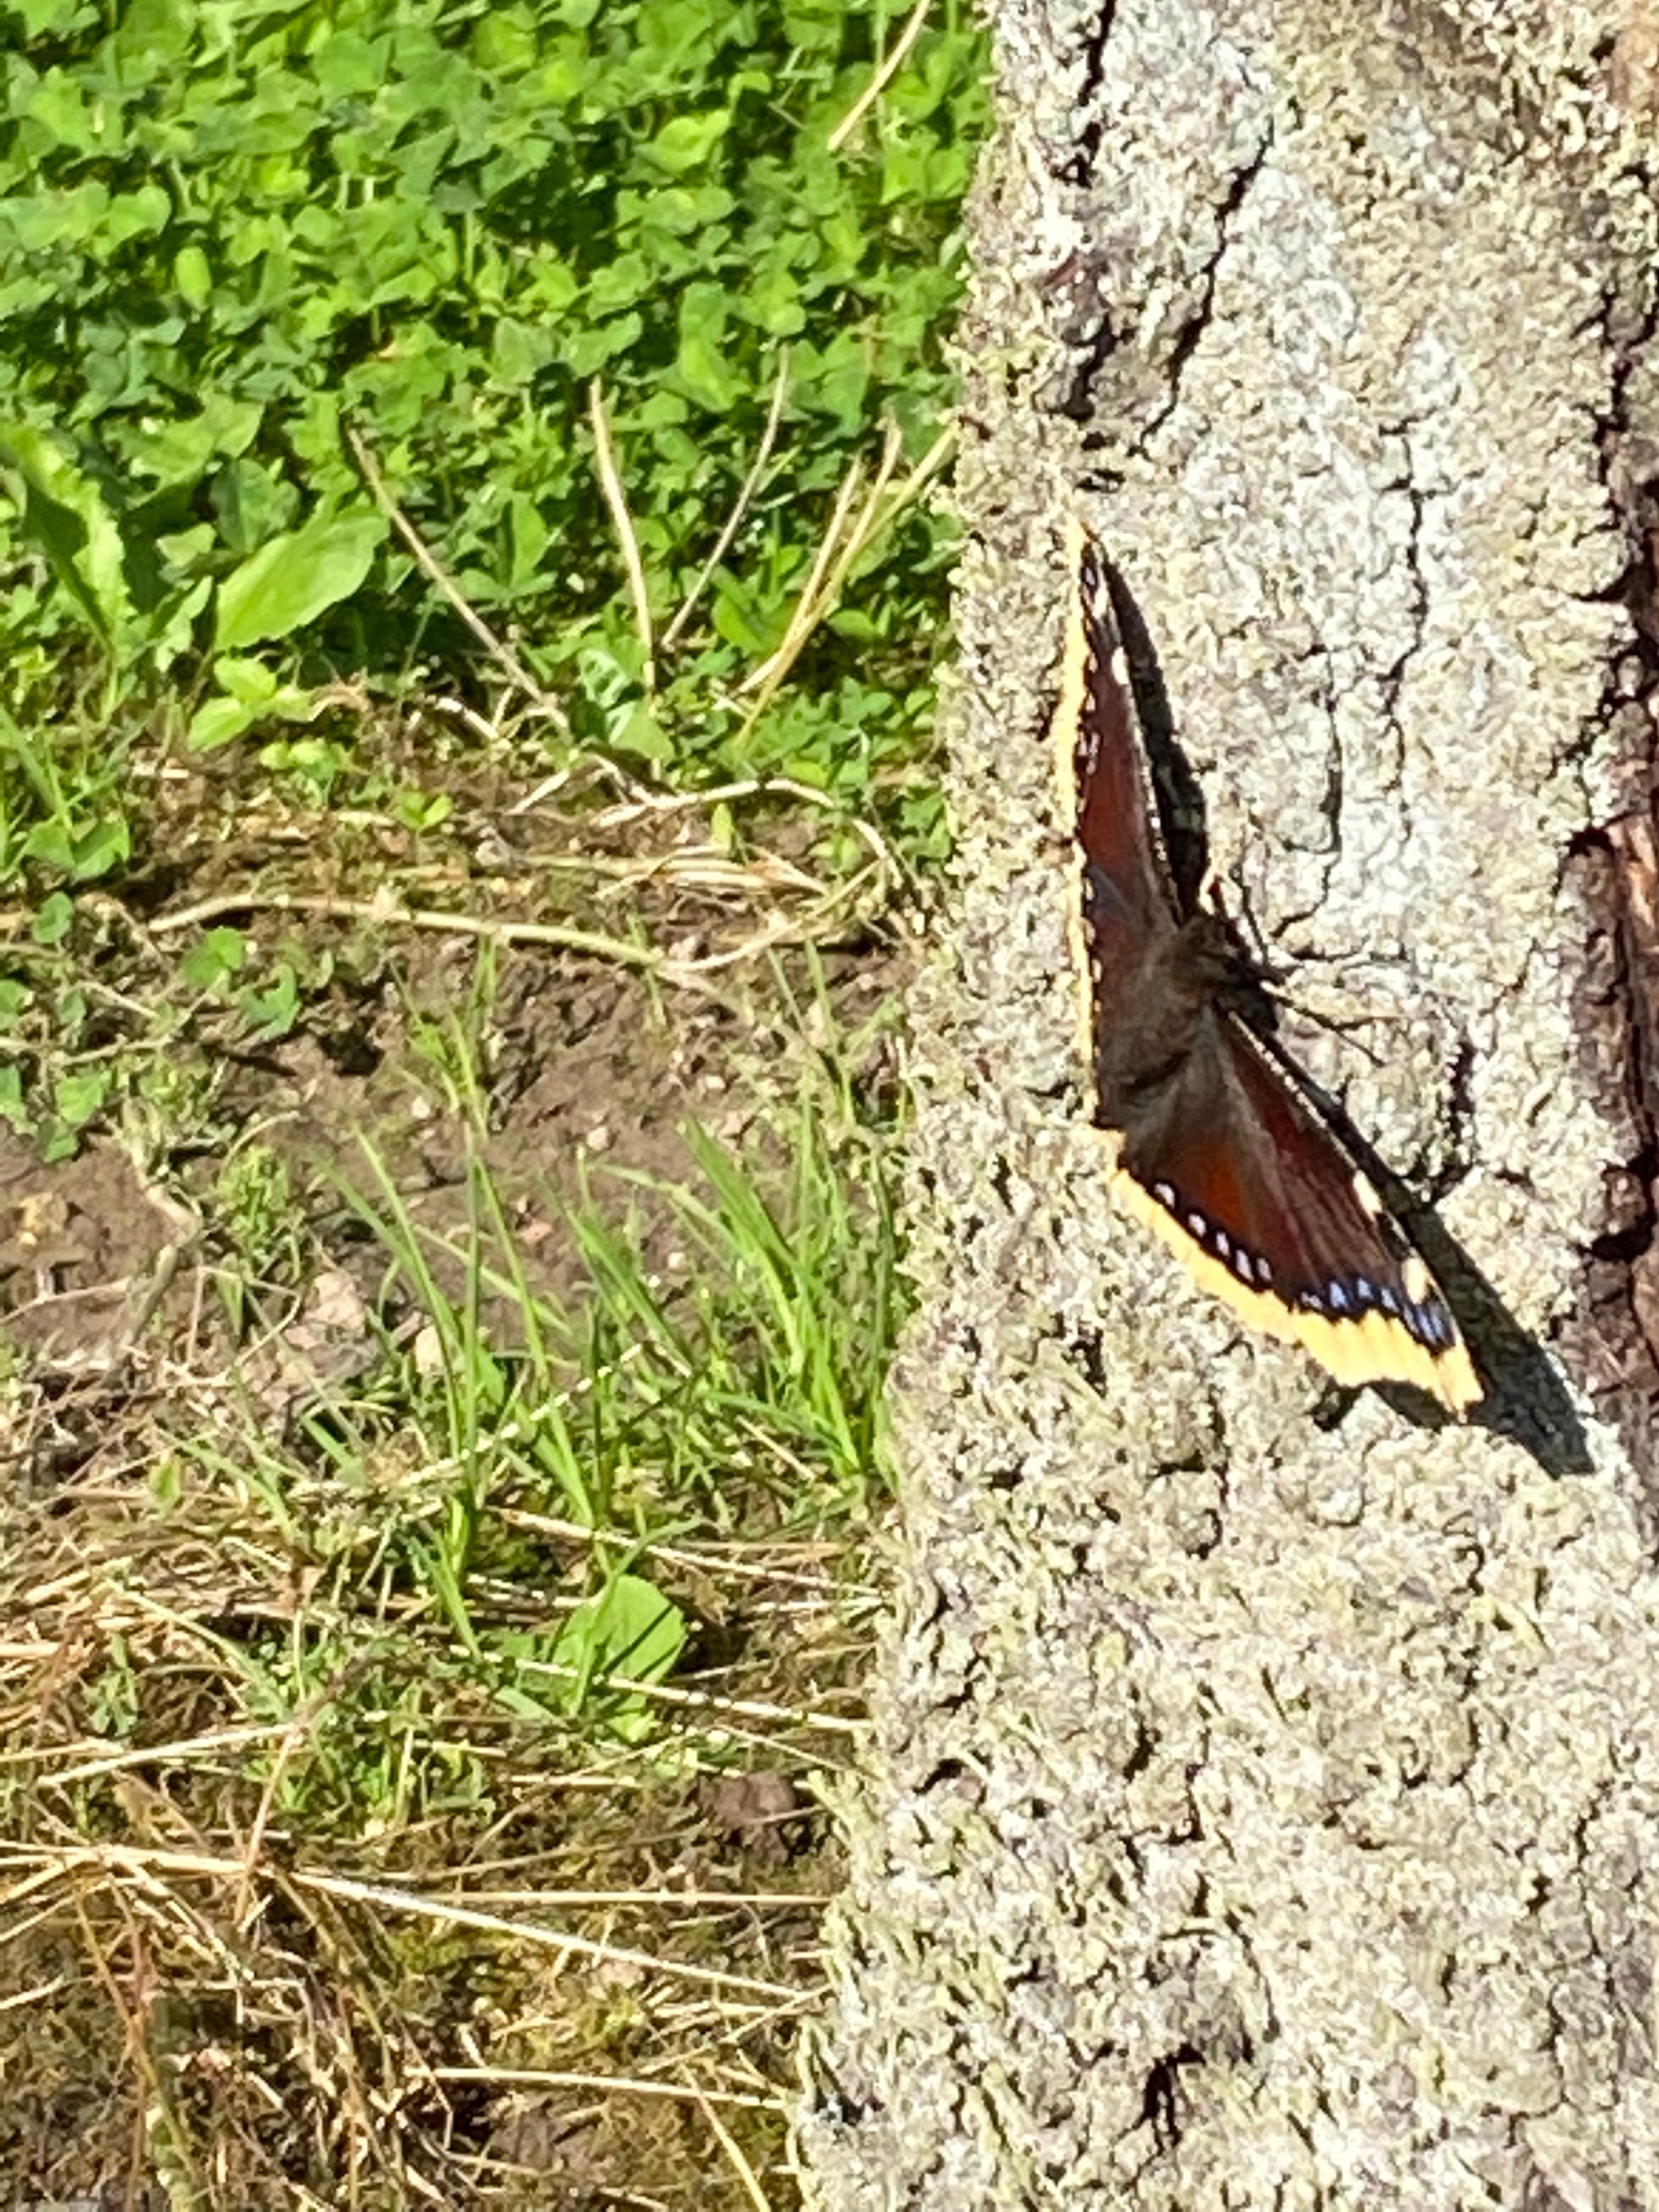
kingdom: Animalia
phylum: Arthropoda
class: Insecta
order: Lepidoptera
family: Nymphalidae
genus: Nymphalis
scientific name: Nymphalis antiopa
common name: Sørgekåbe
